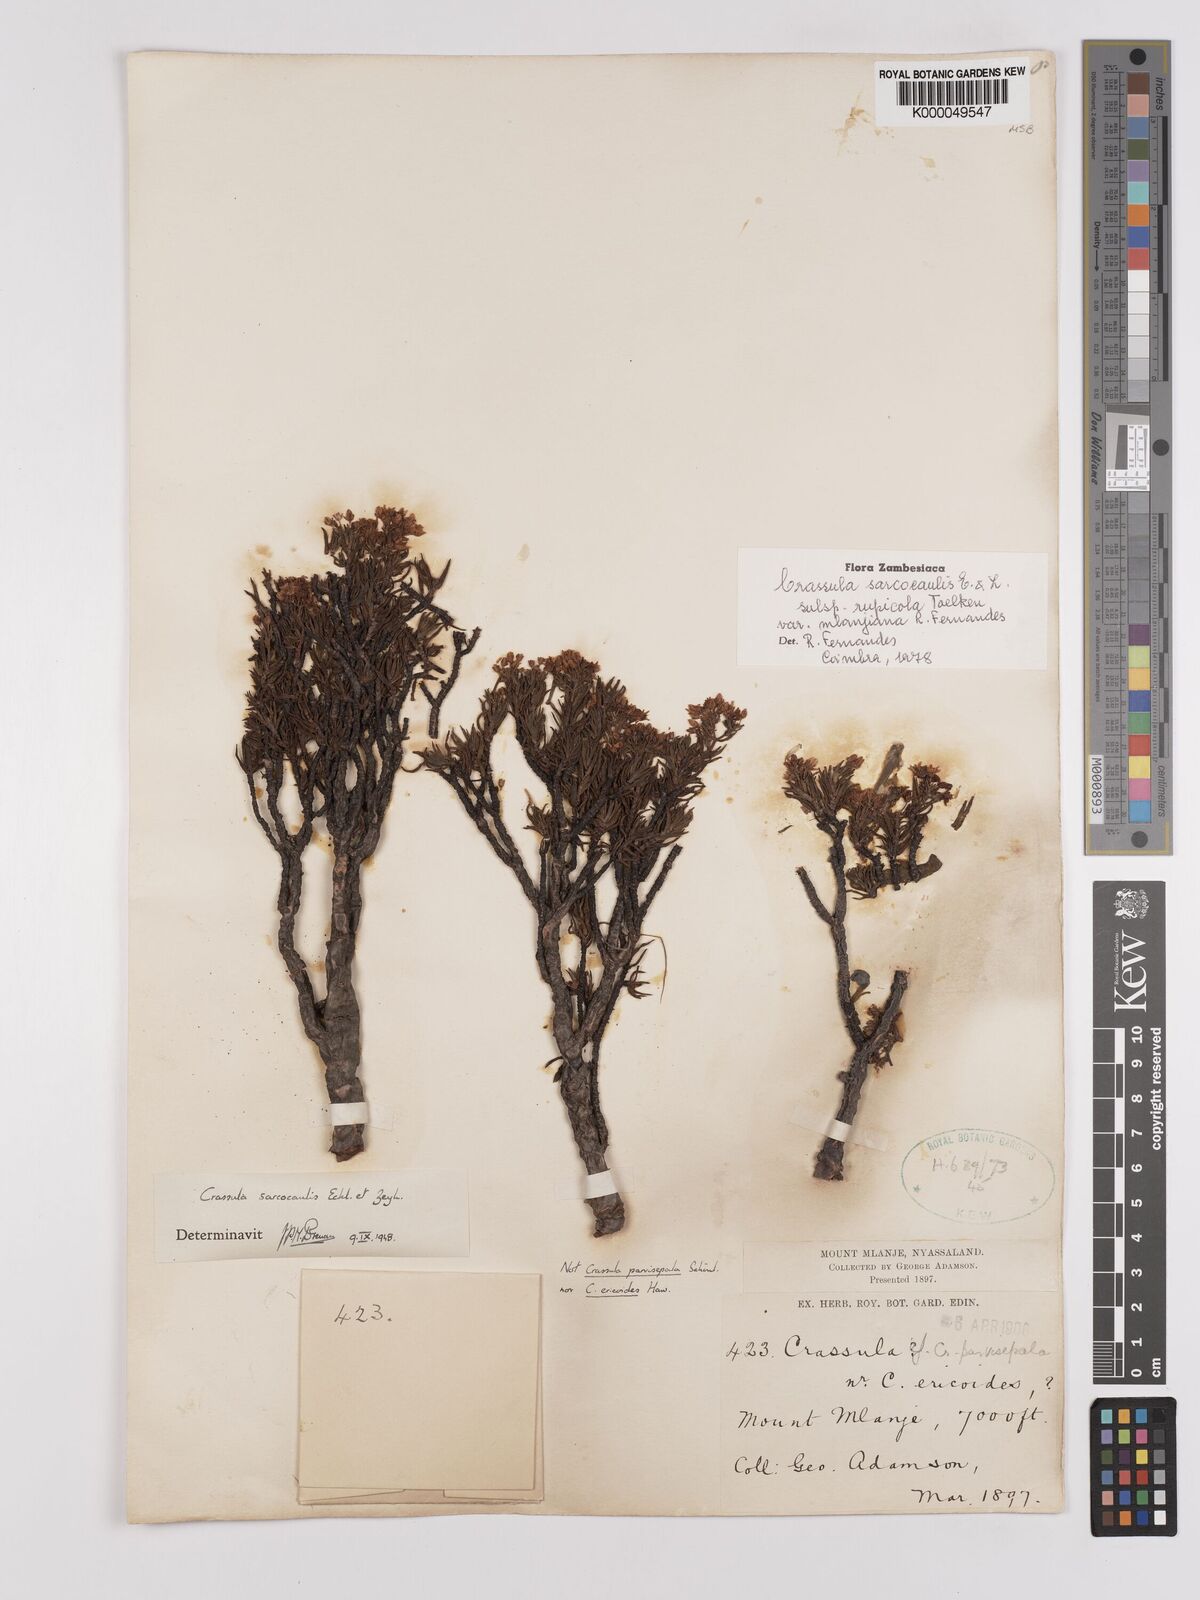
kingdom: Plantae
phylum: Tracheophyta
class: Magnoliopsida
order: Saxifragales
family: Crassulaceae
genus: Crassula
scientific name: Crassula sarcocaulis
